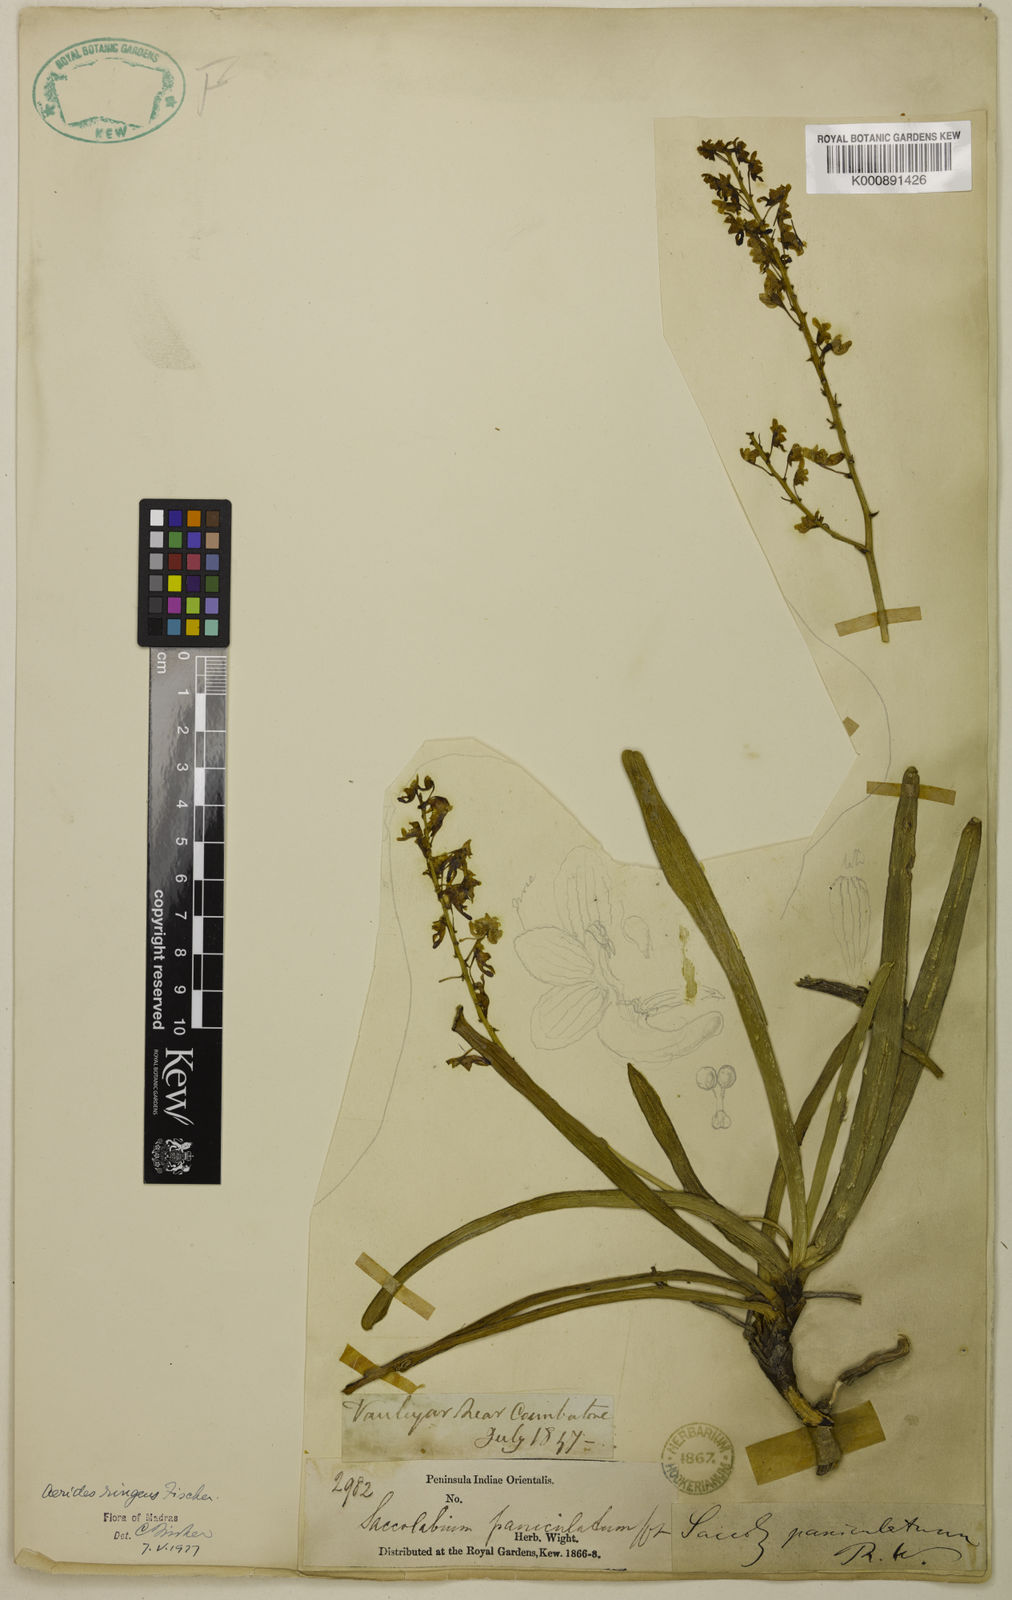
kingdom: Plantae
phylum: Tracheophyta
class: Liliopsida
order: Asparagales
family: Orchidaceae
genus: Aerides
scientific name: Aerides ringens
